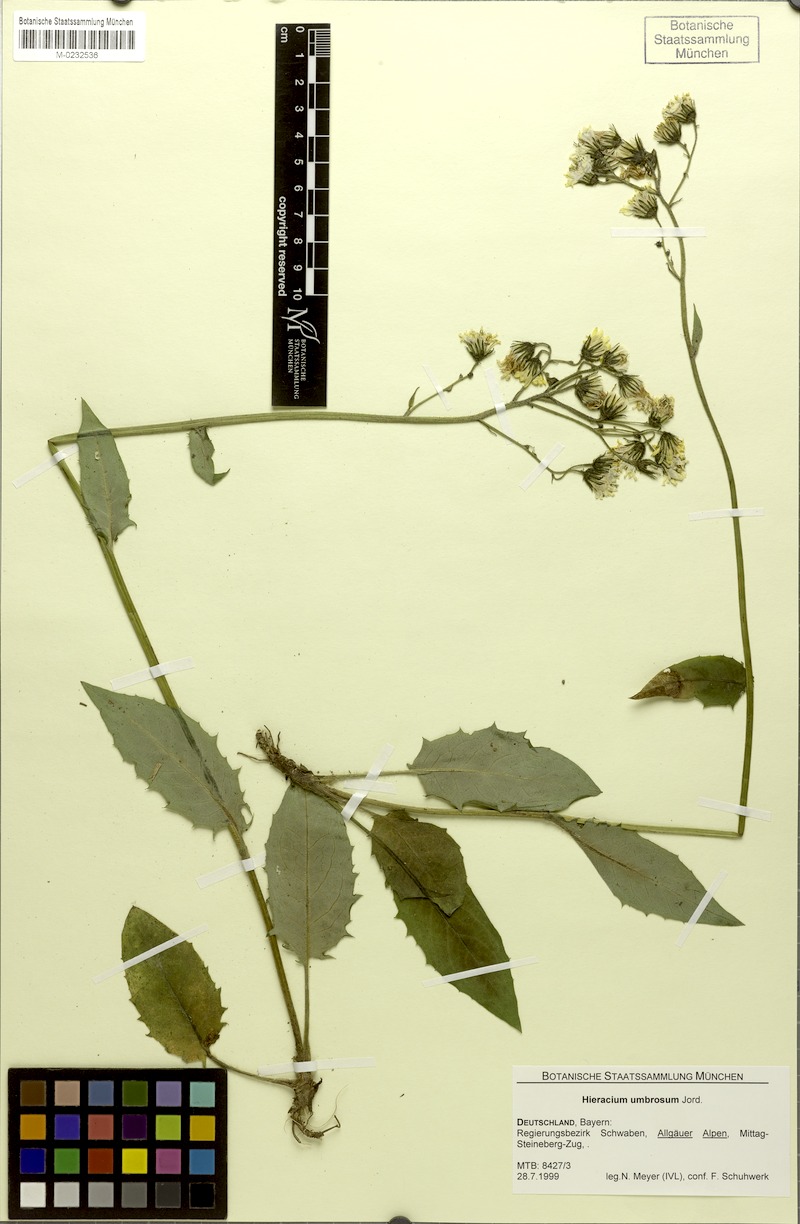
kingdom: Plantae
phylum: Tracheophyta
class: Magnoliopsida
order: Asterales
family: Asteraceae
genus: Hieracium
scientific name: Hieracium umbrosum
